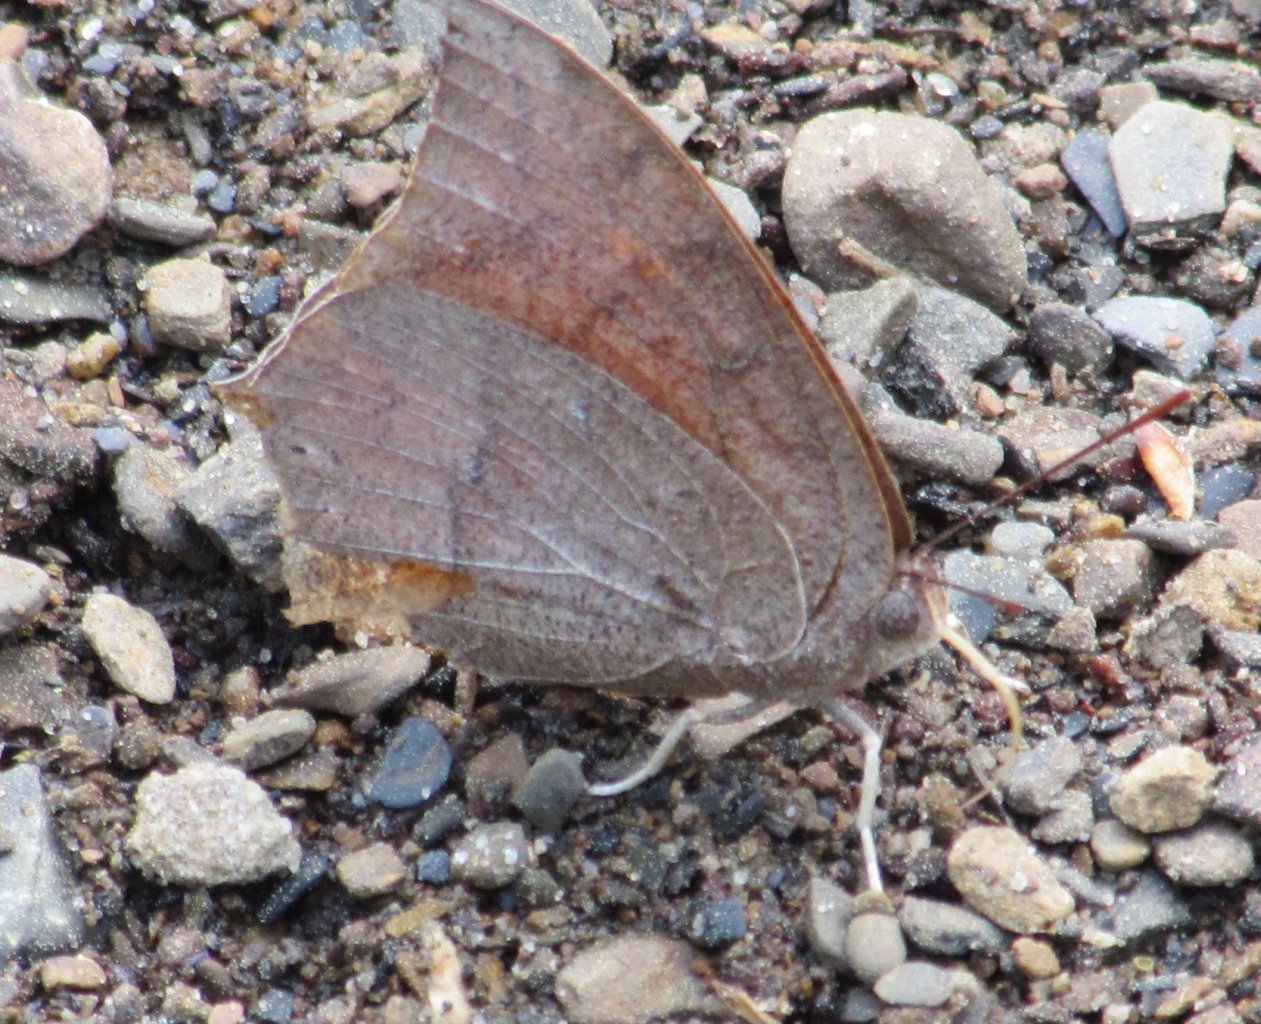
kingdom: Animalia
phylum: Arthropoda
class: Insecta
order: Lepidoptera
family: Nymphalidae
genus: Anaea
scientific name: Anaea andria
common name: Goatweed Leafwing
